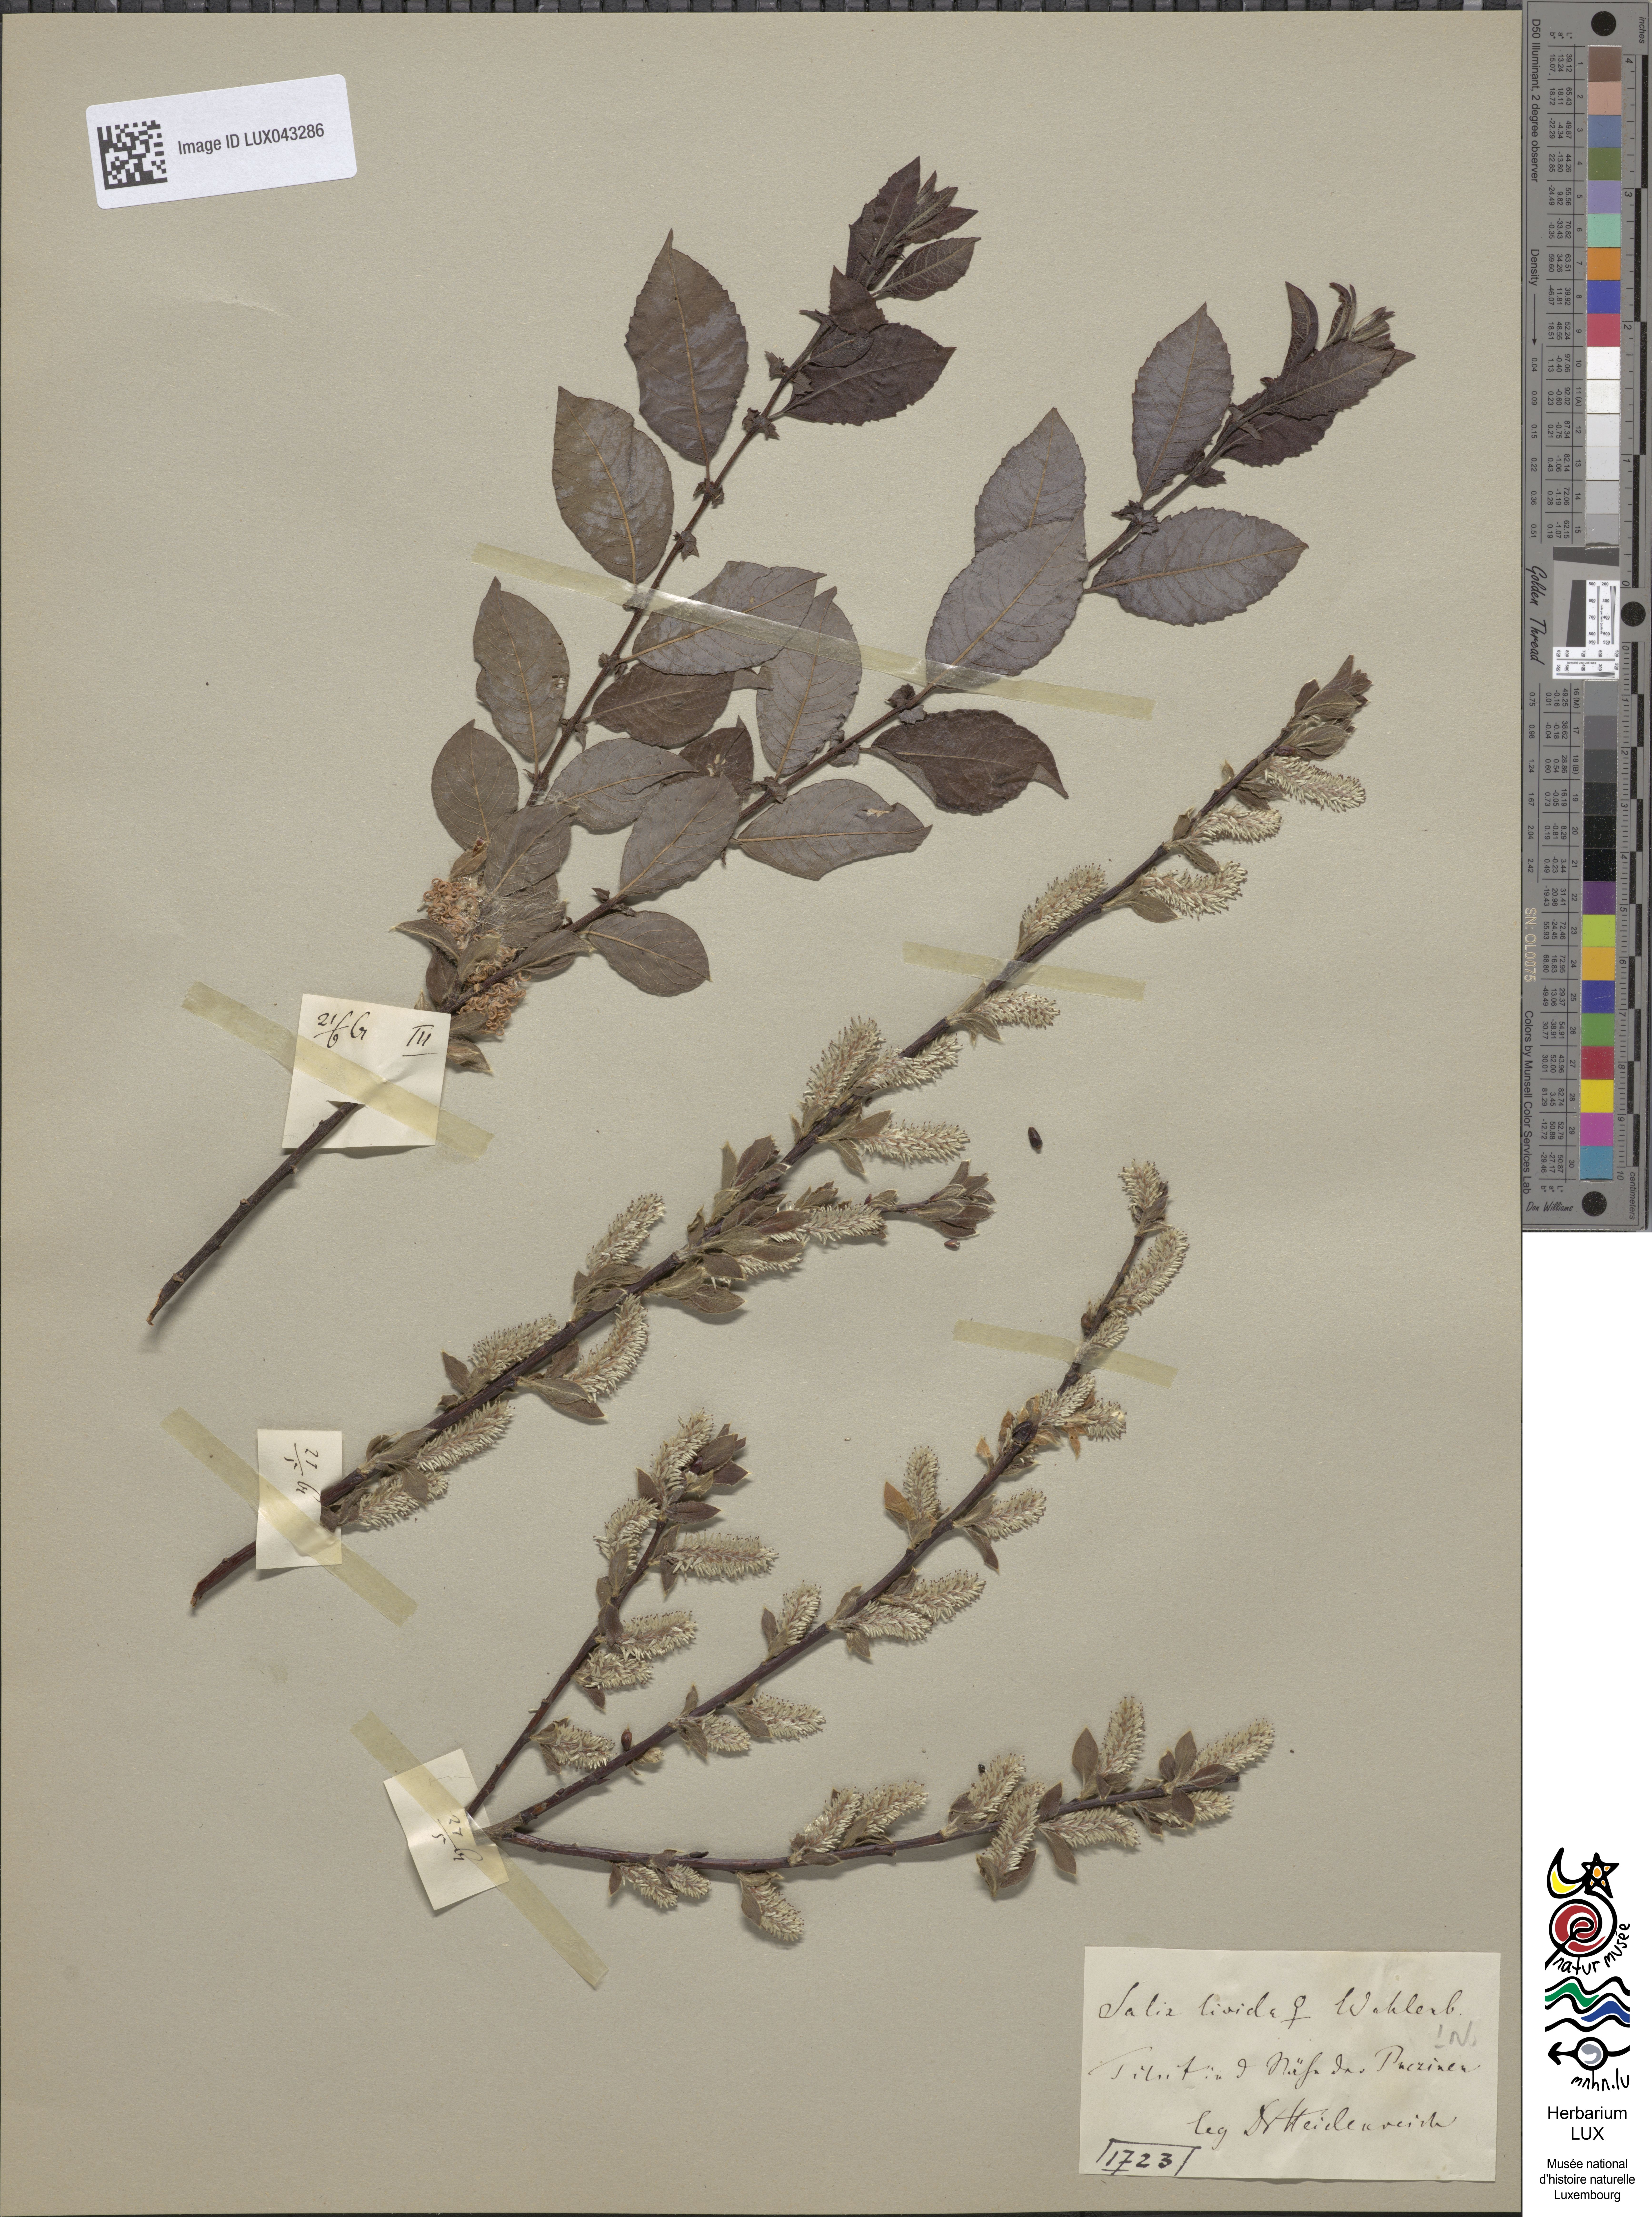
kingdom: Plantae
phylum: Tracheophyta
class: Magnoliopsida
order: Malpighiales
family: Salicaceae
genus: Salix
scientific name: Salix starkeana
